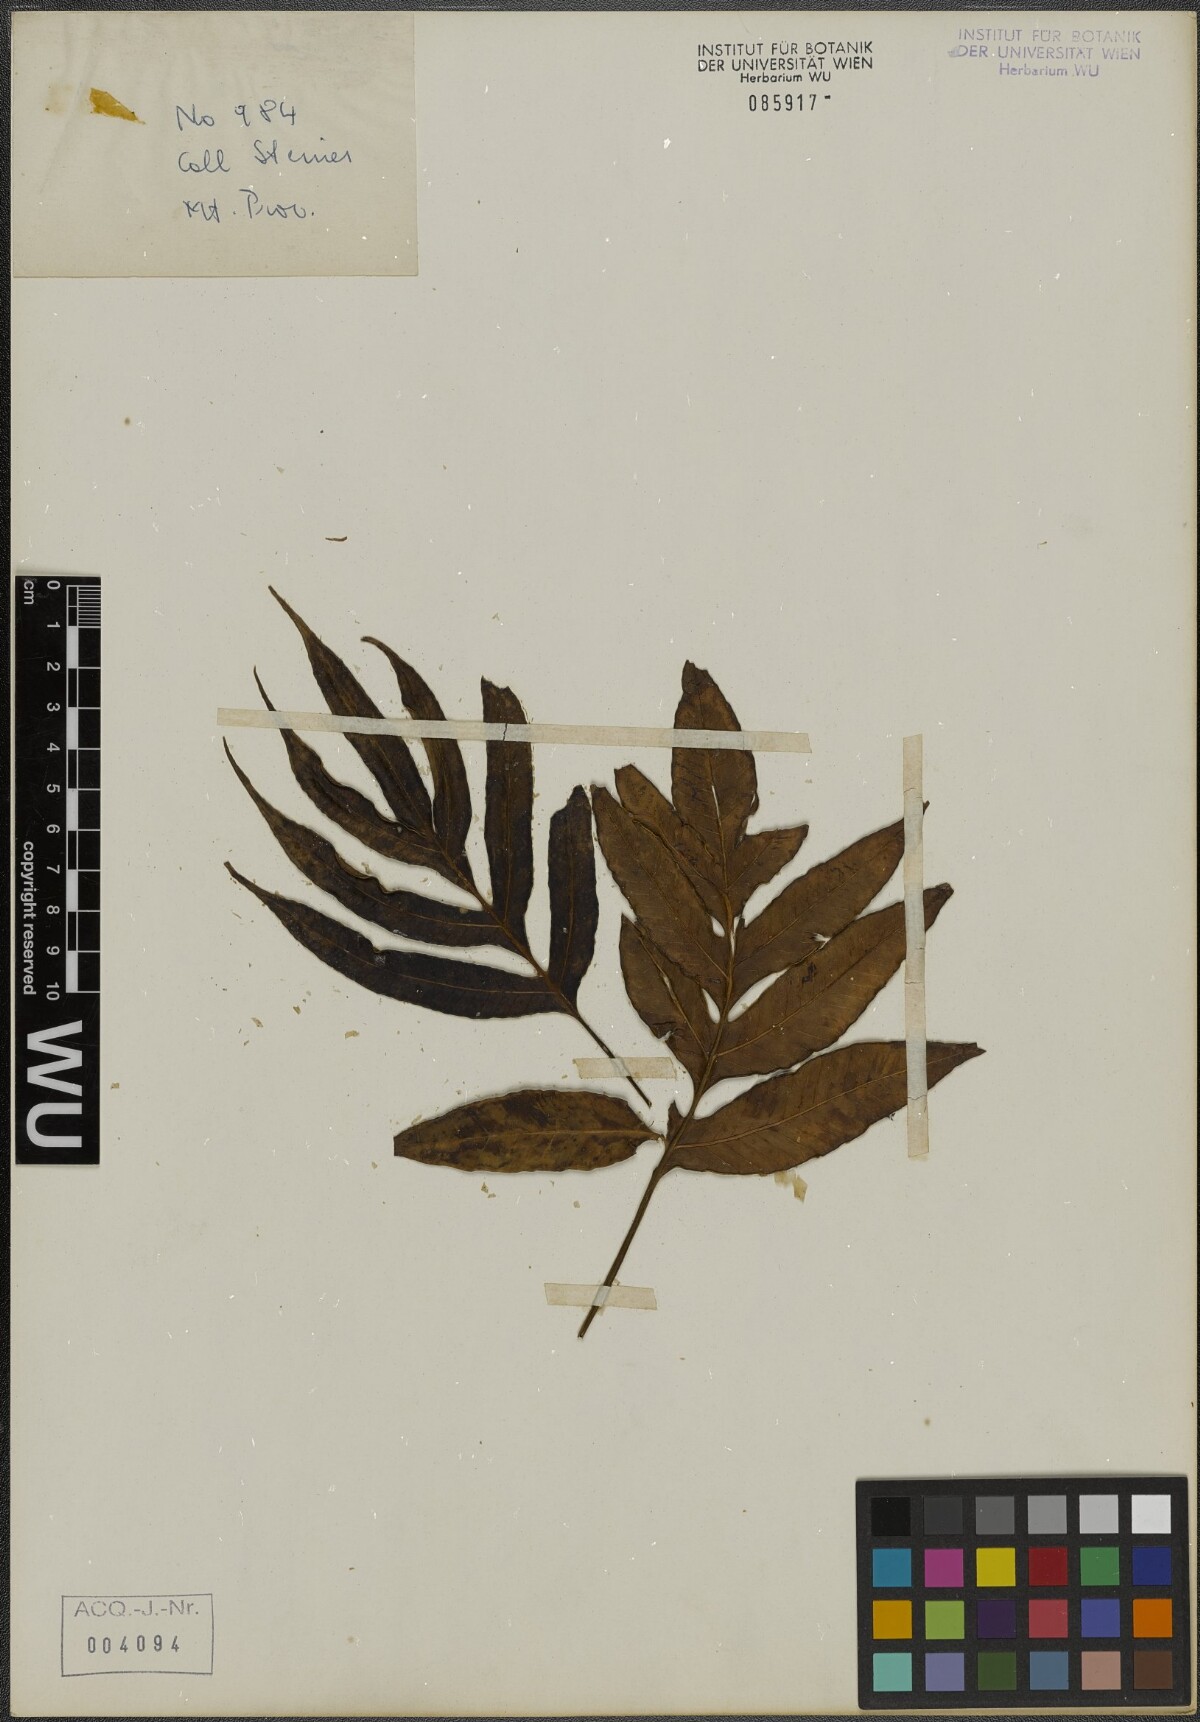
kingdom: Plantae
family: Pteridophyta
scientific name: Pteridophyta
